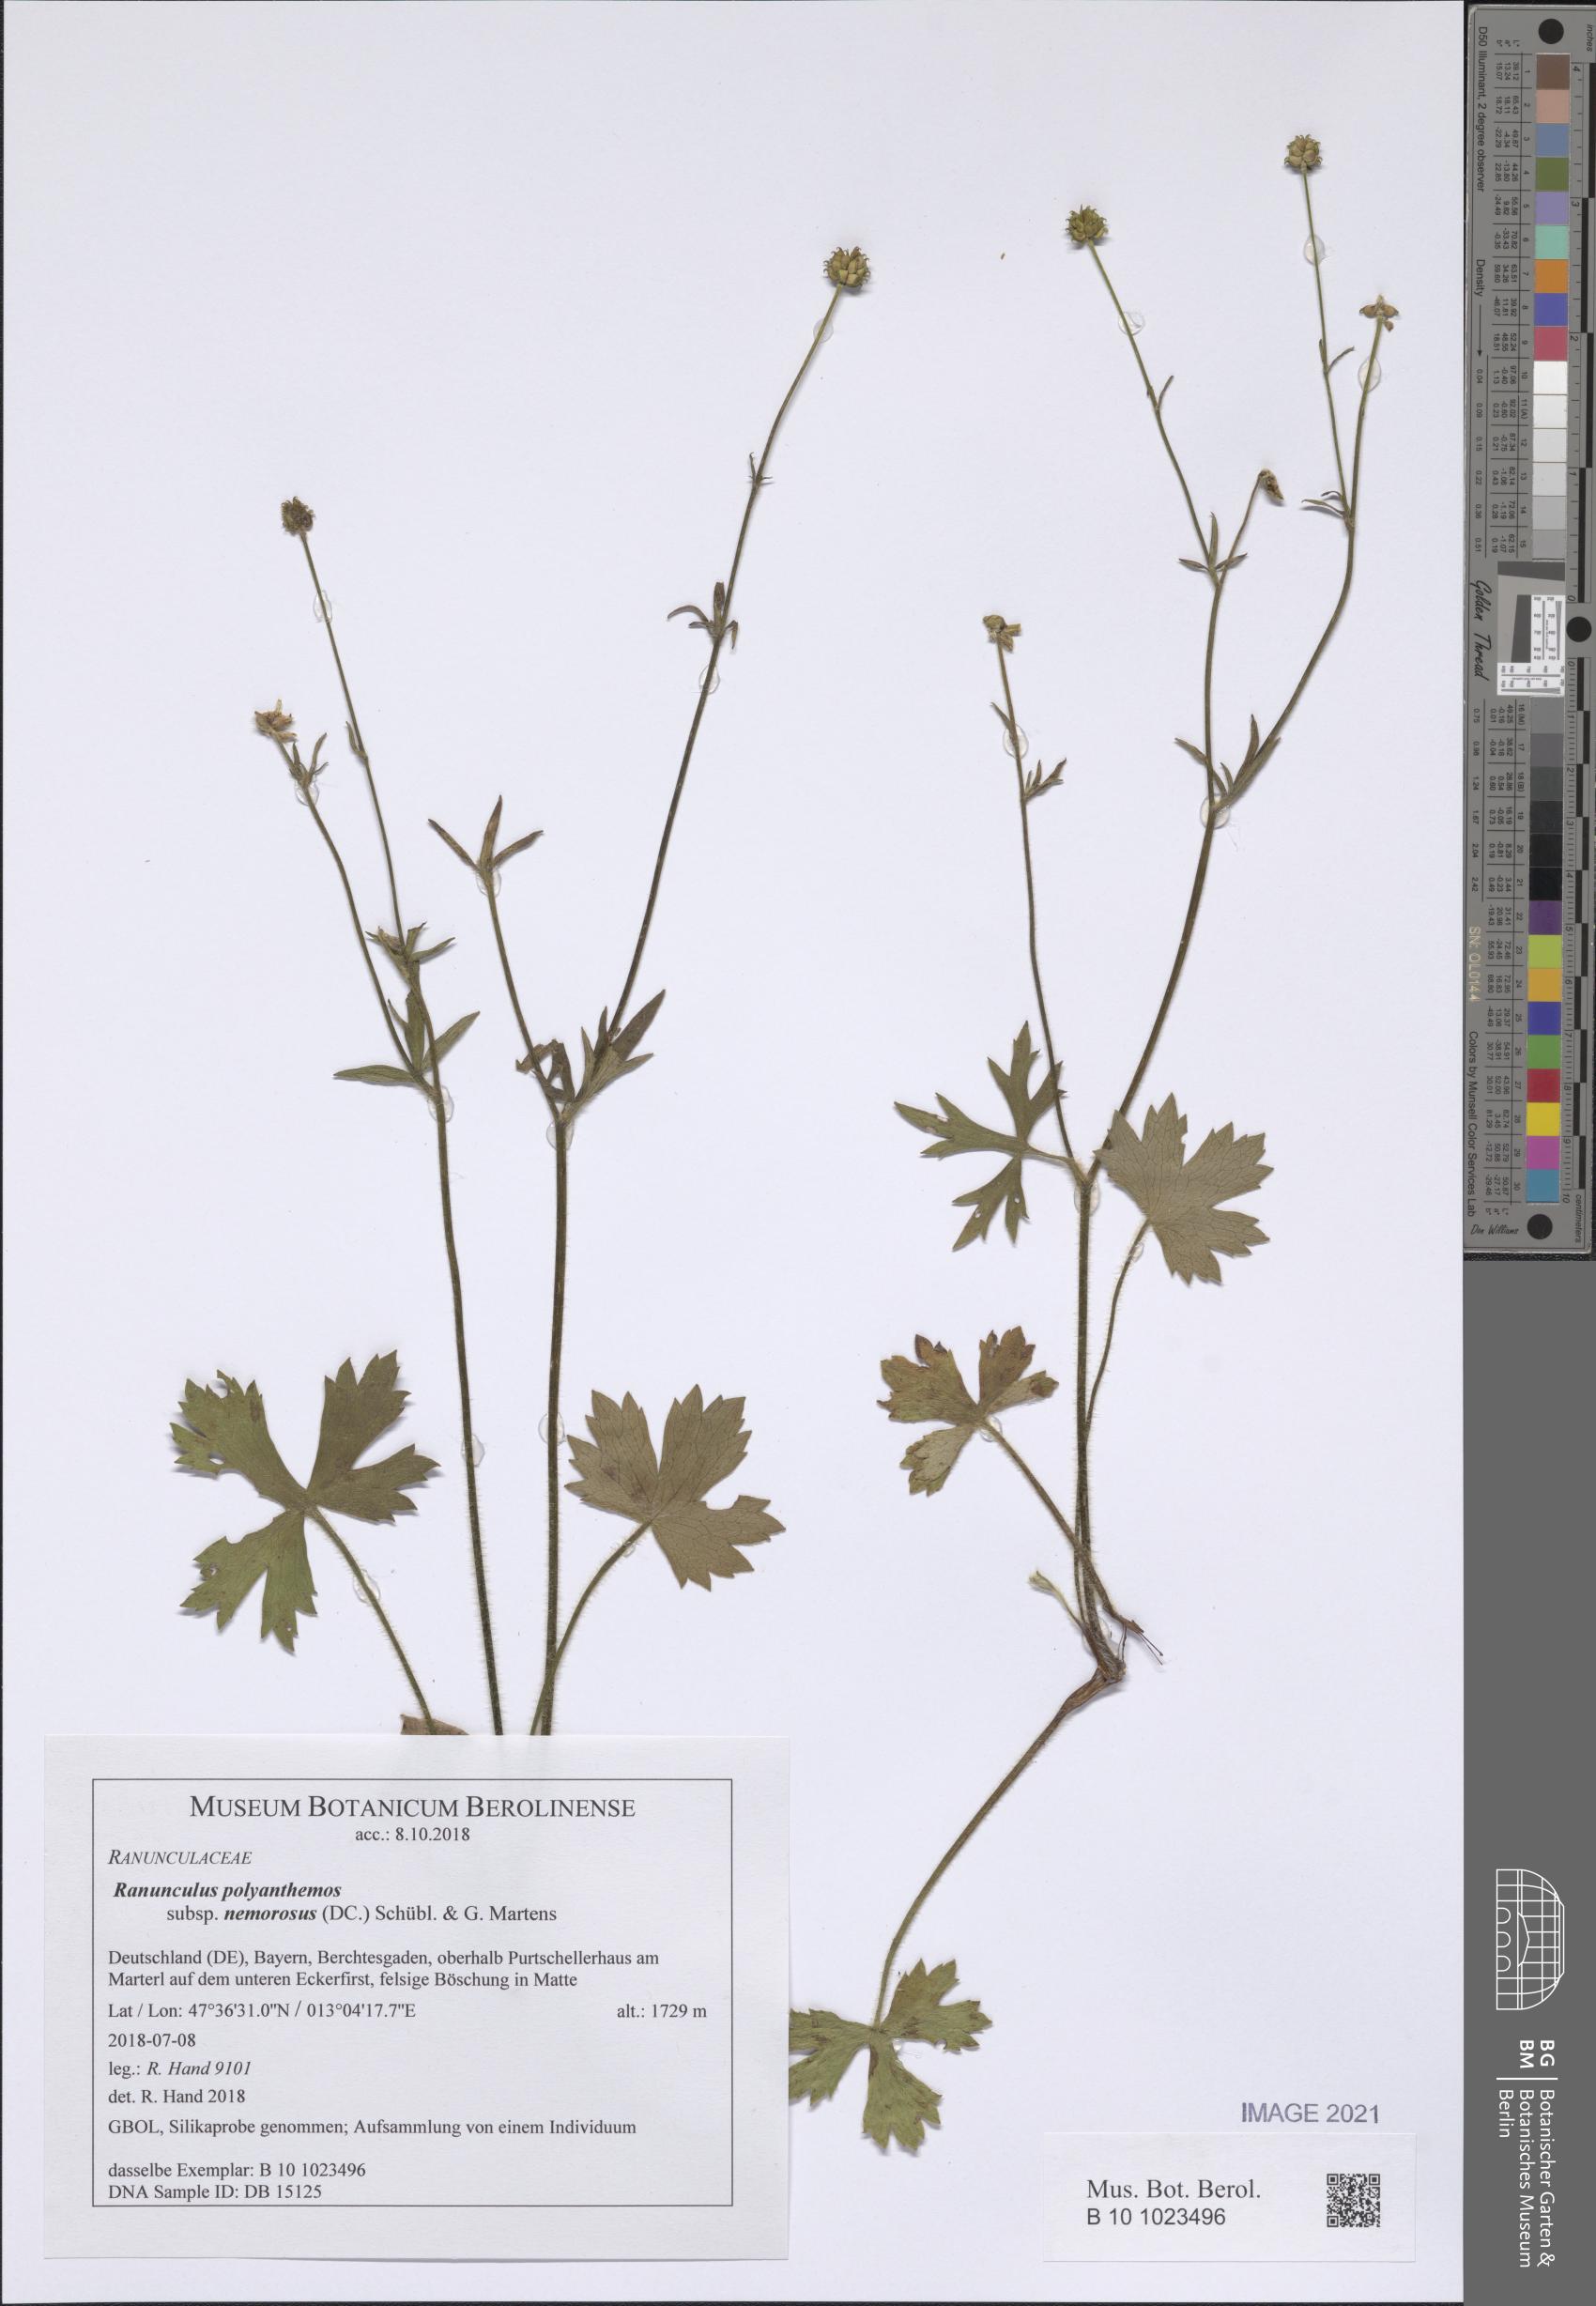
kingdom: Plantae
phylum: Tracheophyta
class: Magnoliopsida
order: Ranunculales
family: Ranunculaceae
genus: Ranunculus
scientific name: Ranunculus polyanthemos
